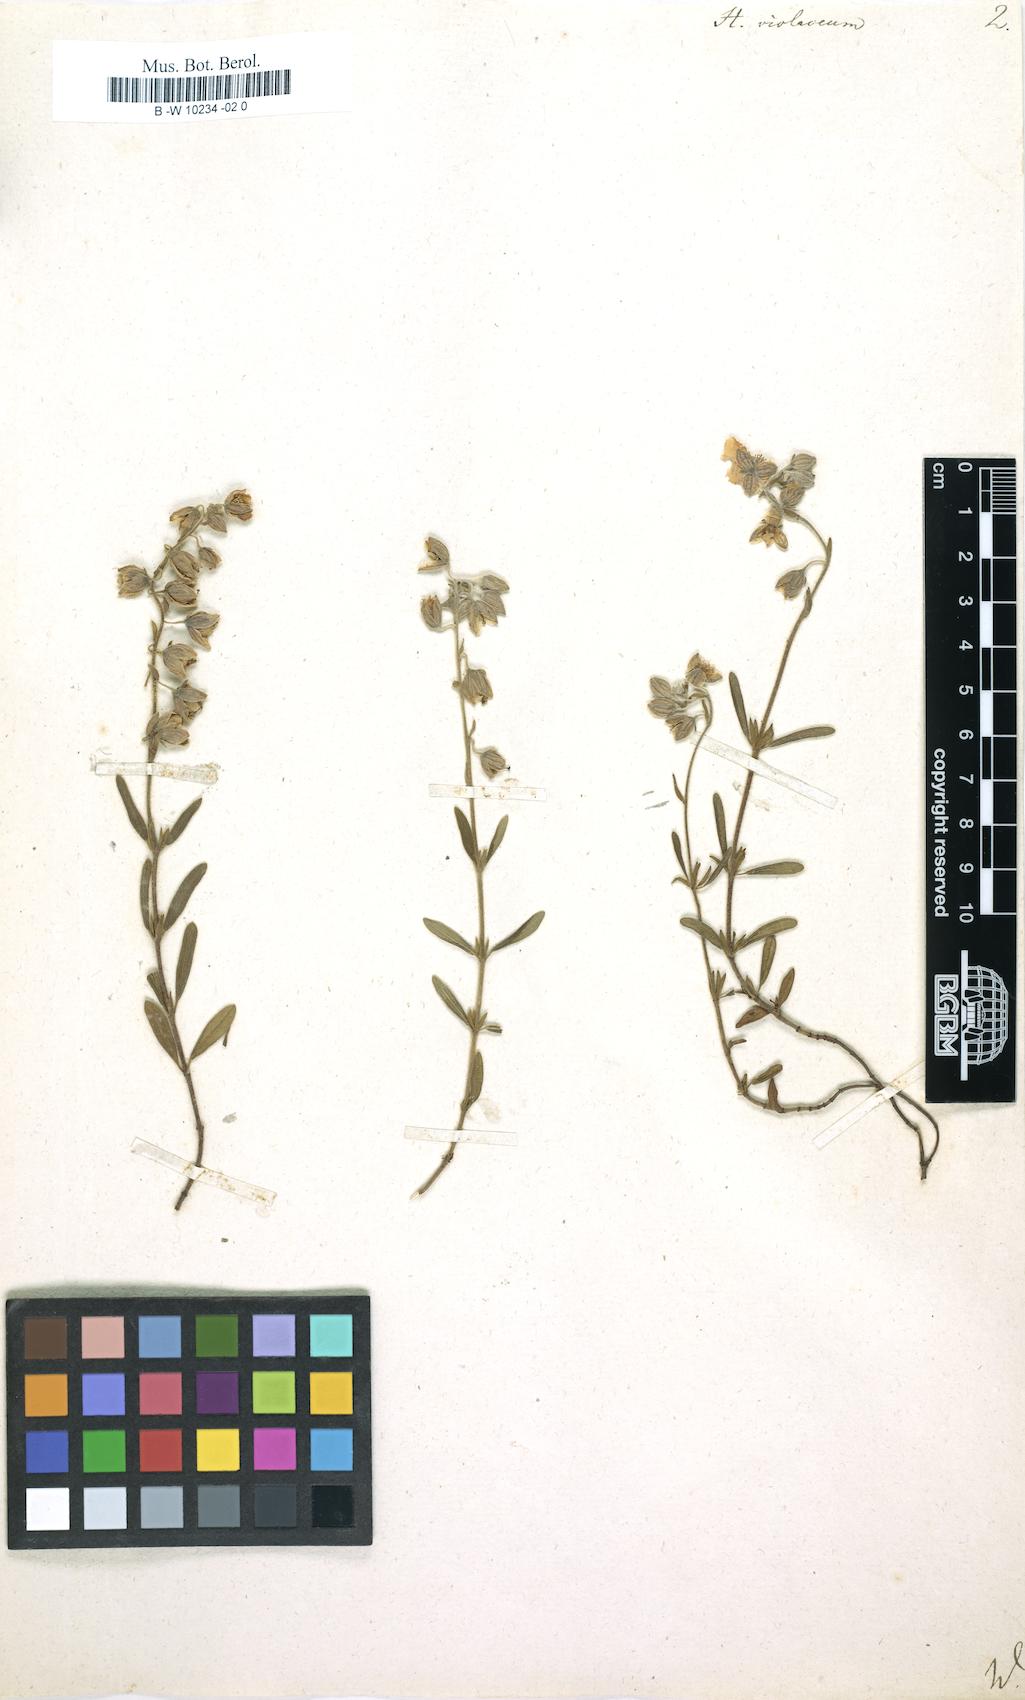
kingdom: Plantae
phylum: Tracheophyta
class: Magnoliopsida
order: Malvales
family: Cistaceae
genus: Helianthemum
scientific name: Helianthemum violaceum
